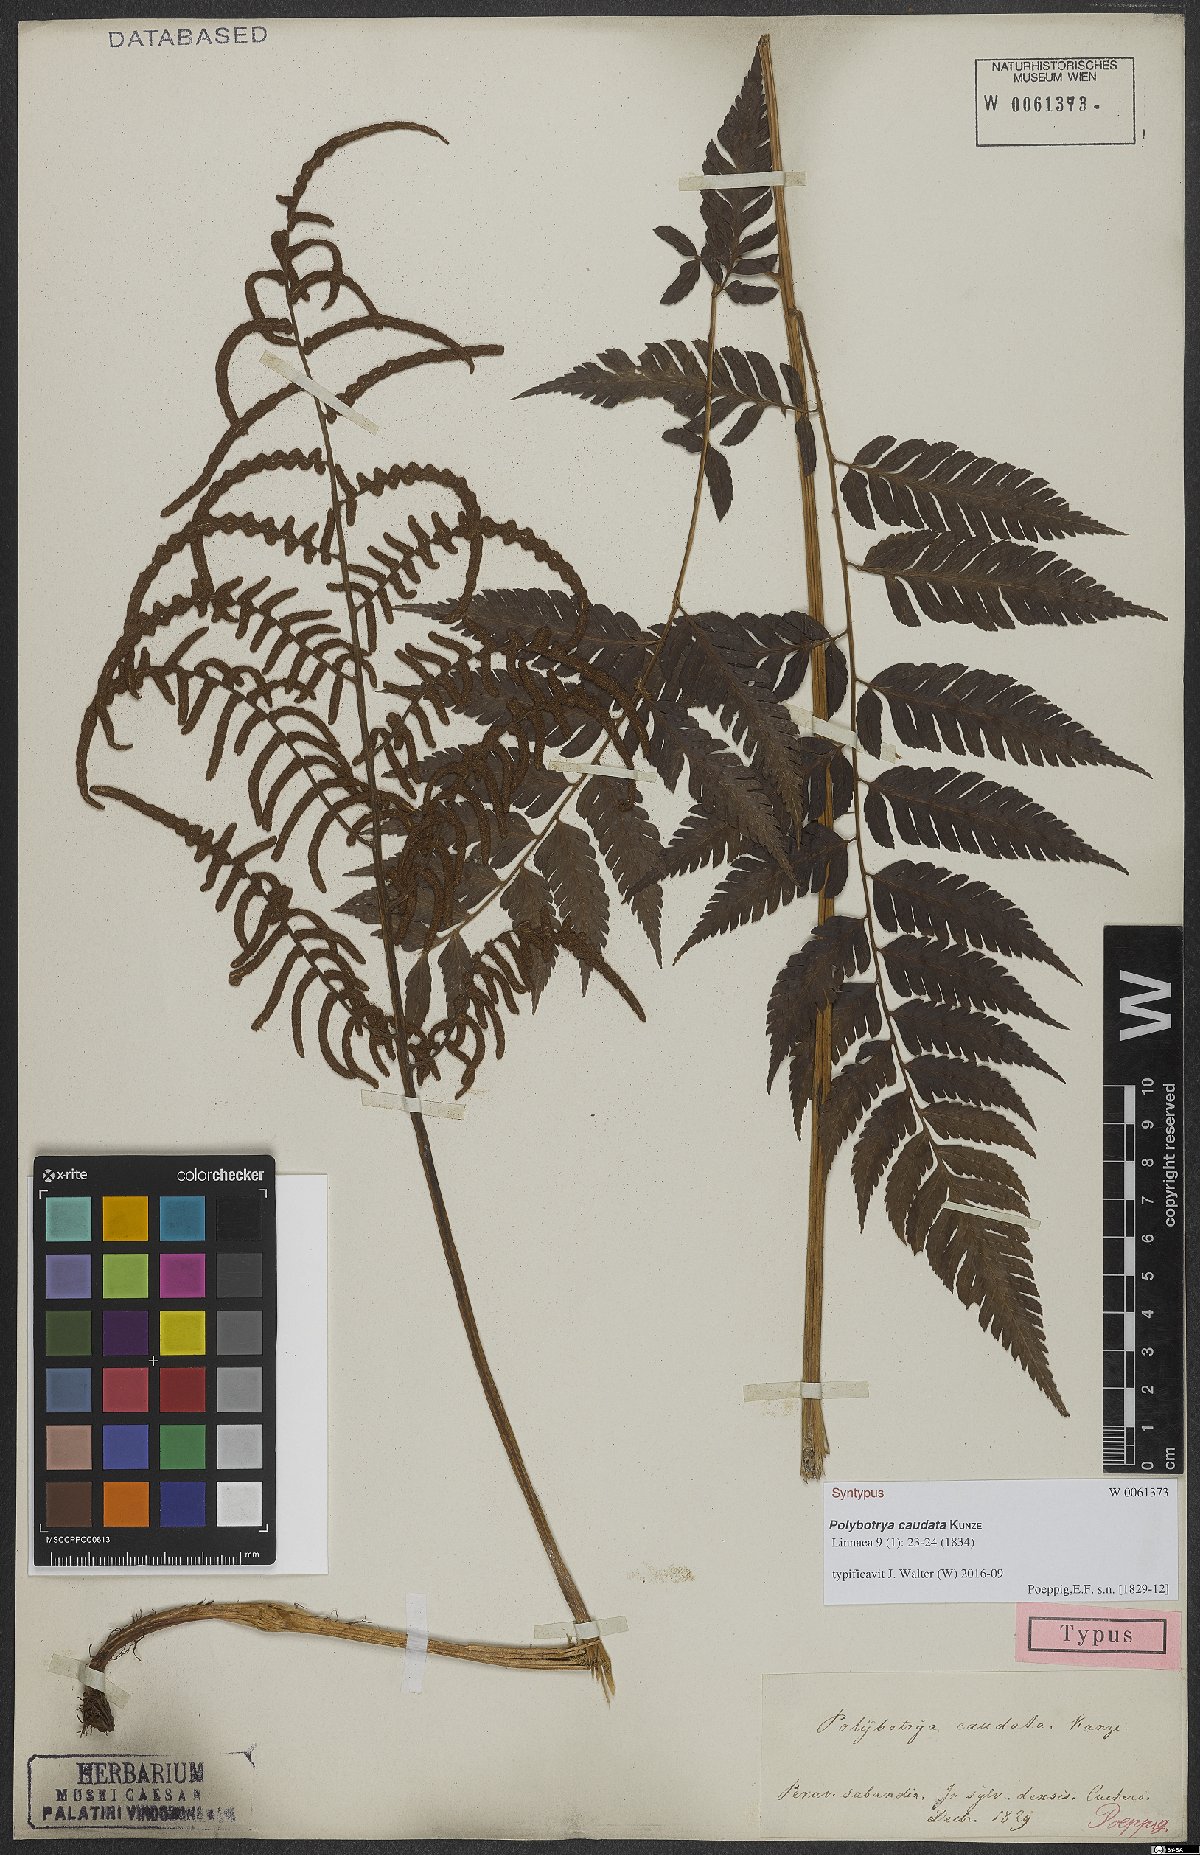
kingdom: Plantae
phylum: Tracheophyta
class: Polypodiopsida
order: Polypodiales
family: Dryopteridaceae
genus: Polybotrya
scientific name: Polybotrya caudata
